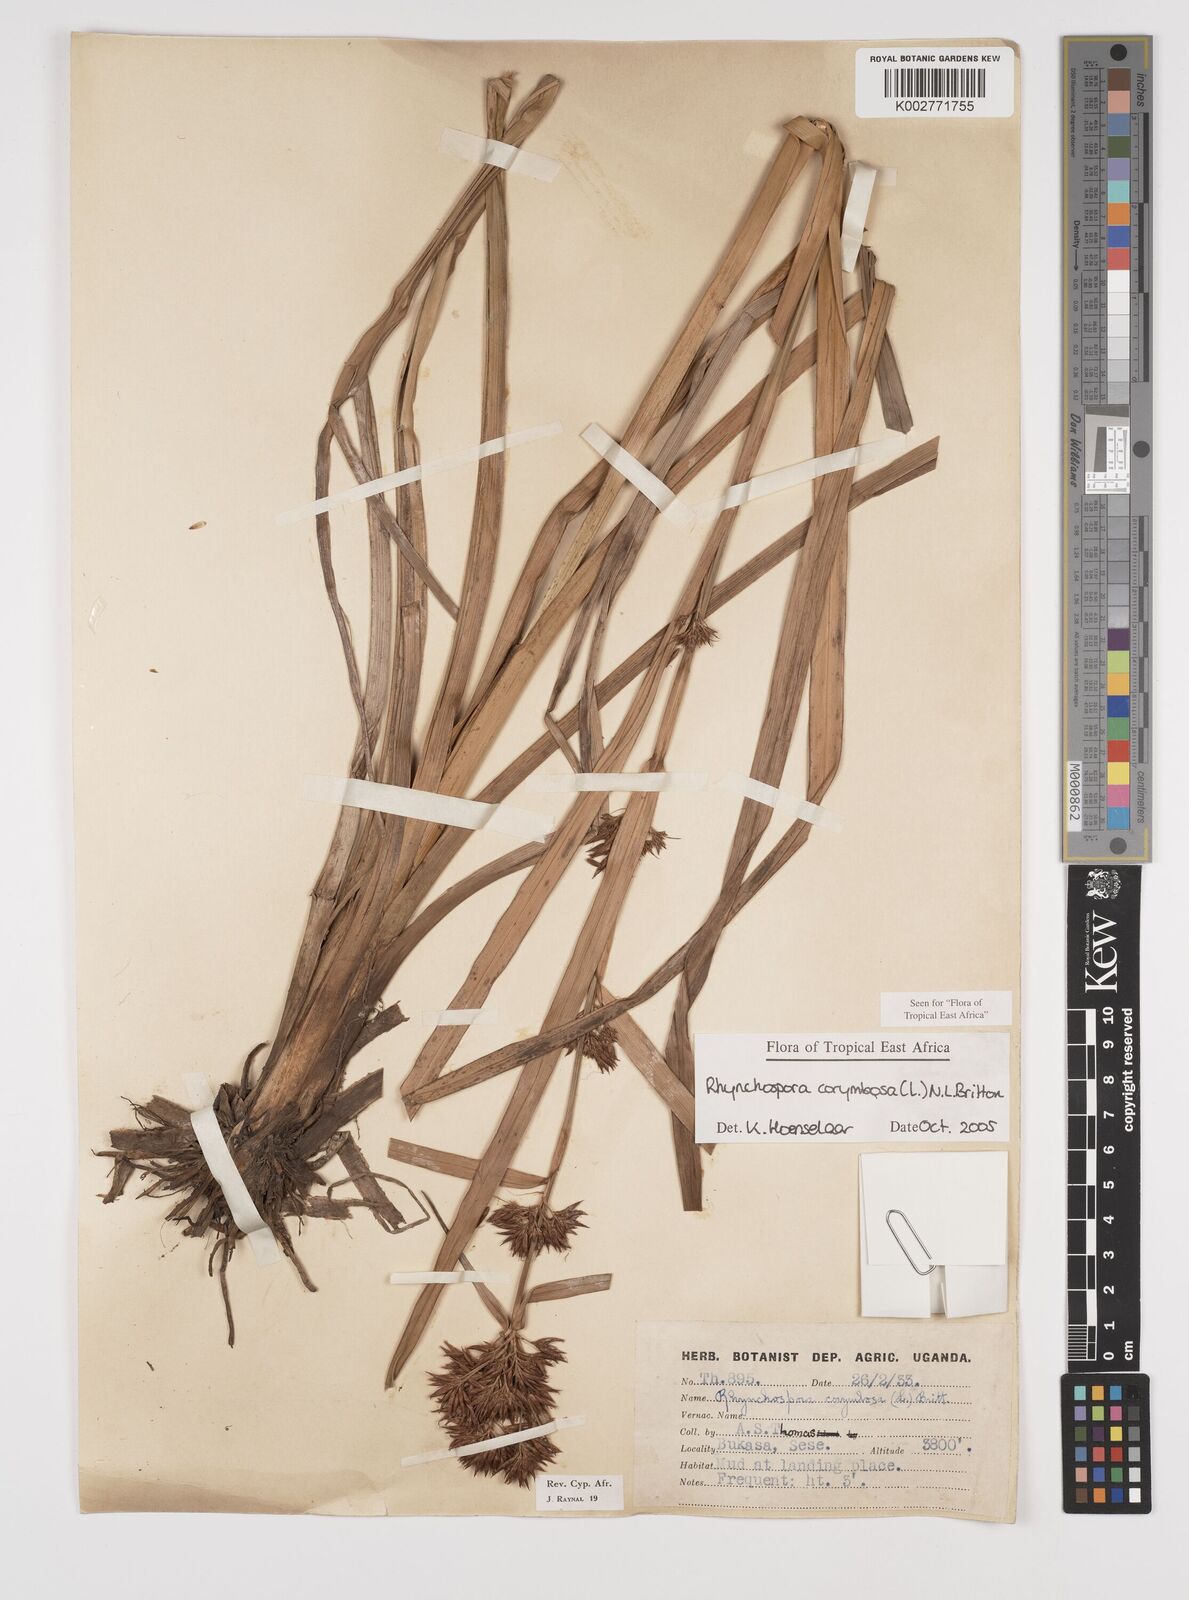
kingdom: Plantae
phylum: Tracheophyta
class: Liliopsida
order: Poales
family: Cyperaceae
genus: Rhynchospora
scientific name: Rhynchospora corymbosa
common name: Golden beak sedge
